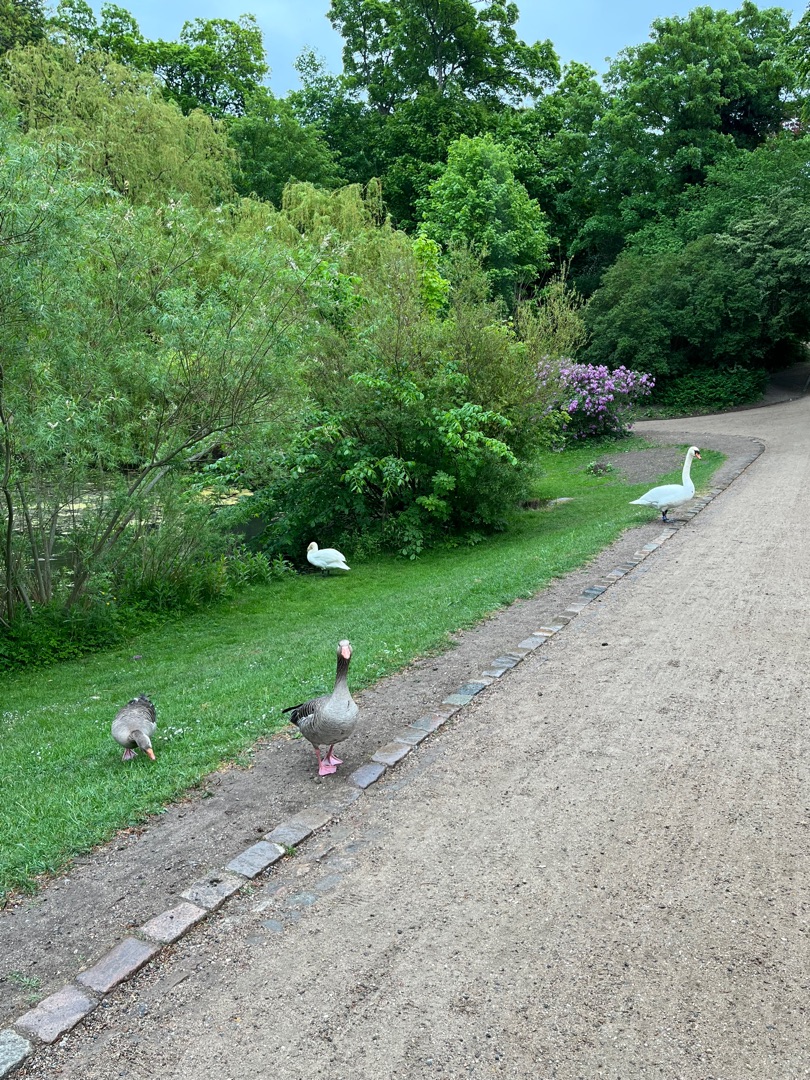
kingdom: Animalia
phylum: Chordata
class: Aves
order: Anseriformes
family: Anatidae
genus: Anser
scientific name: Anser anser
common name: Grågås
